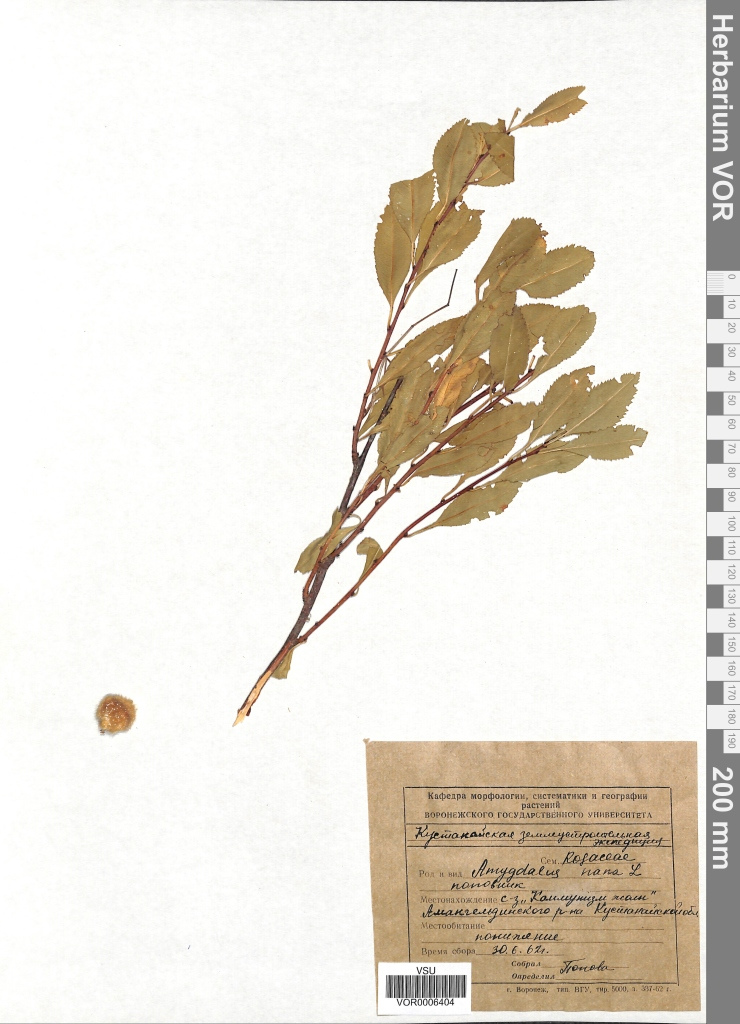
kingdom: Plantae
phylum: Tracheophyta
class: Magnoliopsida
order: Rosales
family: Rosaceae
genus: Prunus
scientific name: Prunus tenella
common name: Dwarf russian almond
